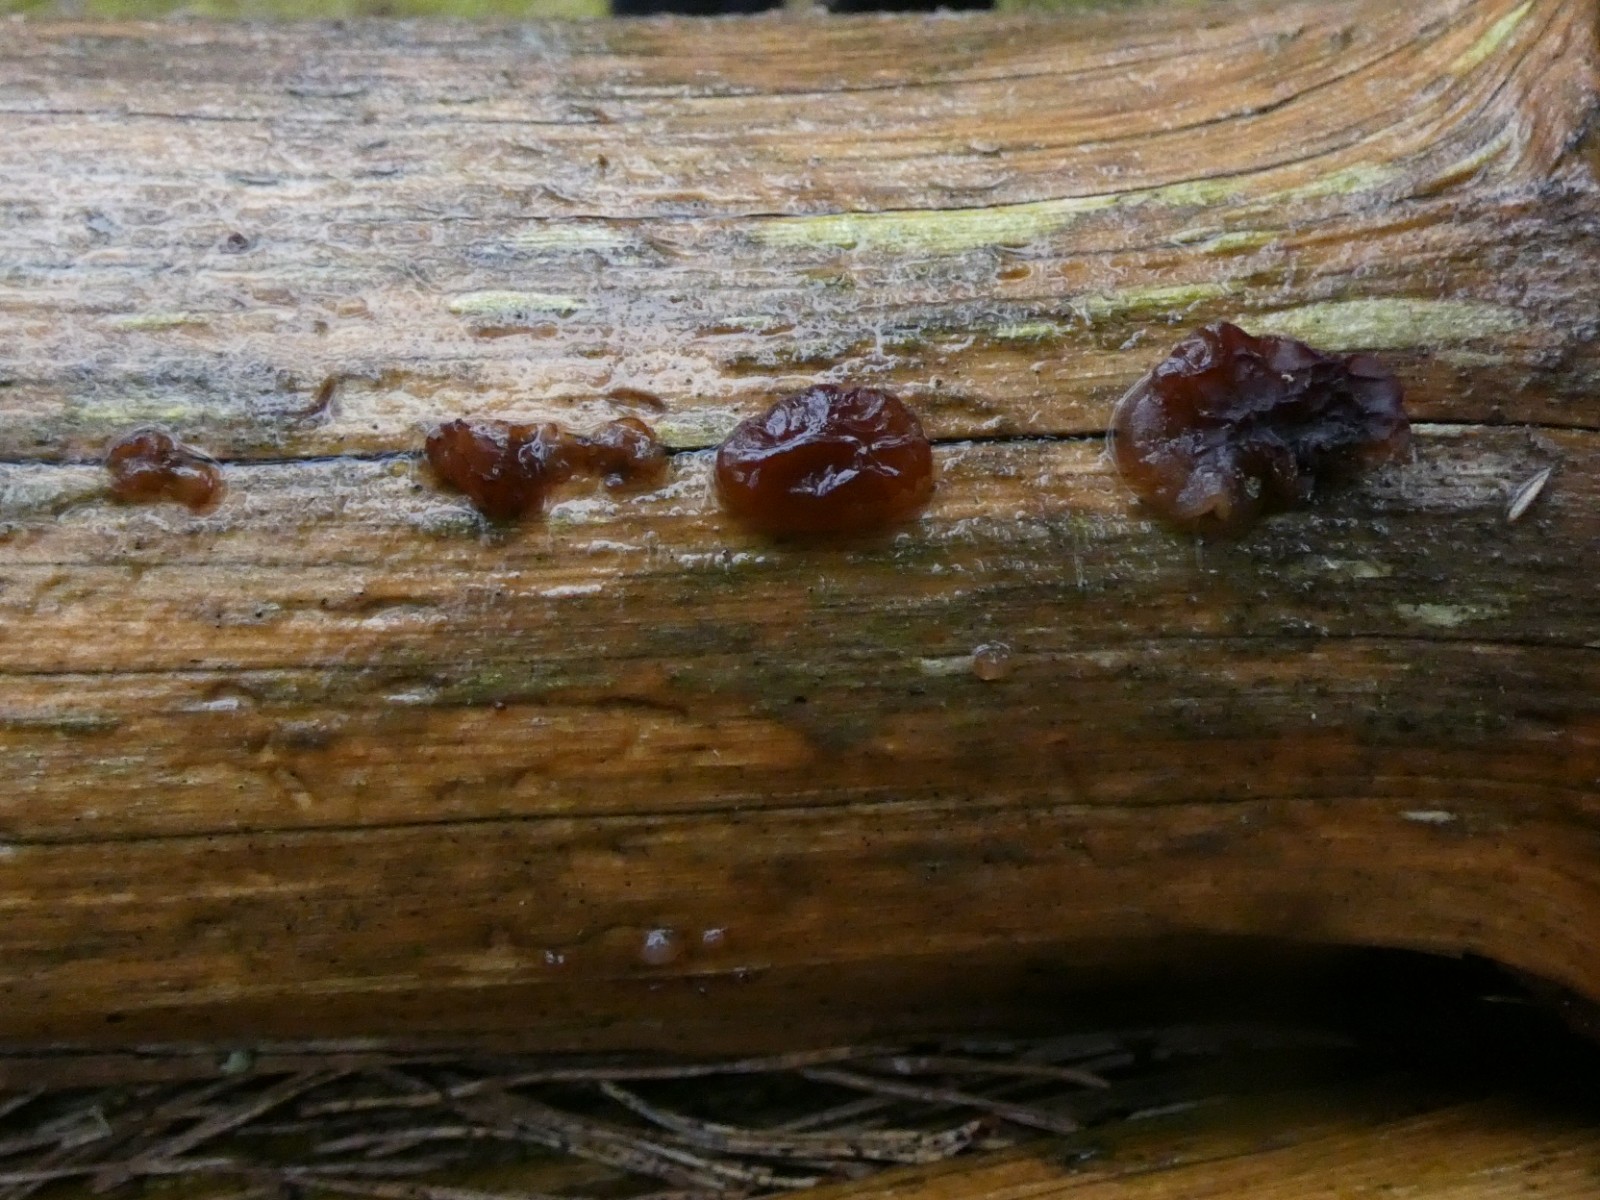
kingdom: Fungi
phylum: Basidiomycota
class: Agaricomycetes
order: Auriculariales
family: Auriculariaceae
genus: Exidia
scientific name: Exidia saccharina
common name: kandis-bævretop
